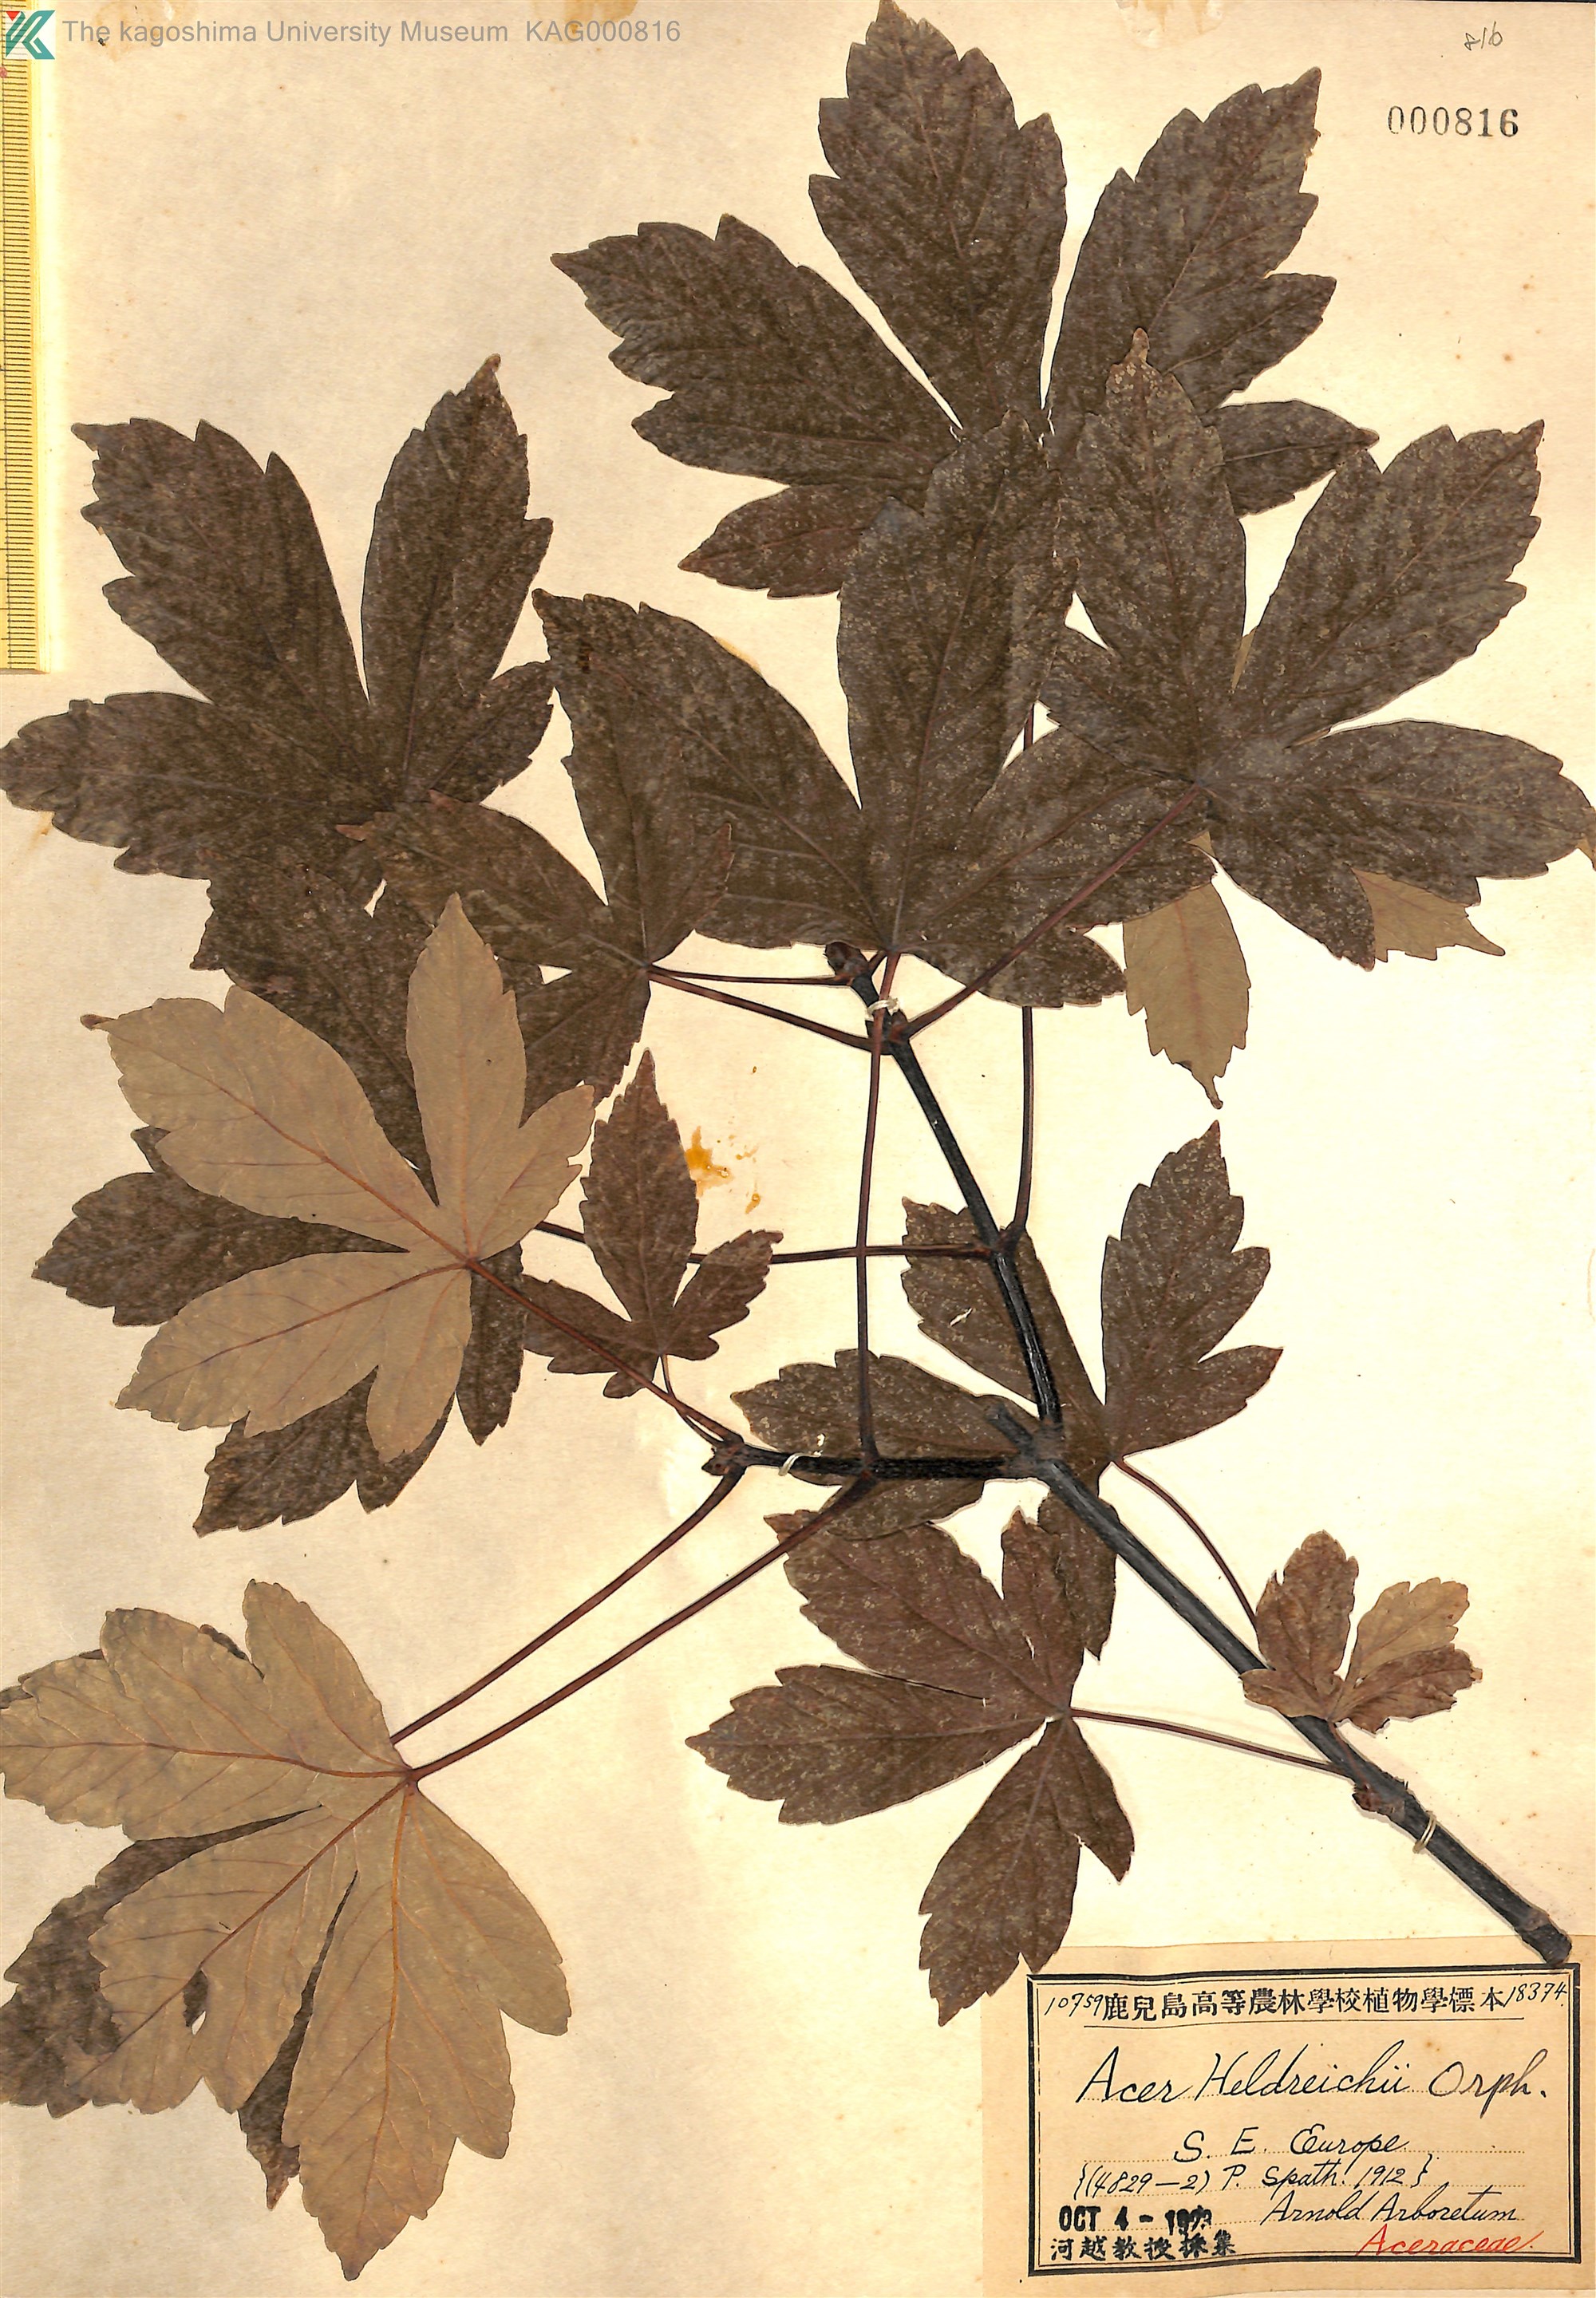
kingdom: Plantae
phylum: Tracheophyta
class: Magnoliopsida
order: Sapindales
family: Sapindaceae
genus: Acer
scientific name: Acer heldreichii
